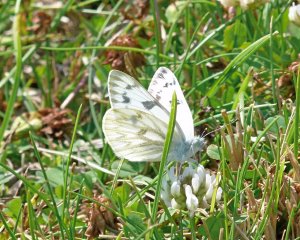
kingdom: Animalia
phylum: Arthropoda
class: Insecta
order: Lepidoptera
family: Pieridae
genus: Pontia
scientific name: Pontia occidentalis
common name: Western White
